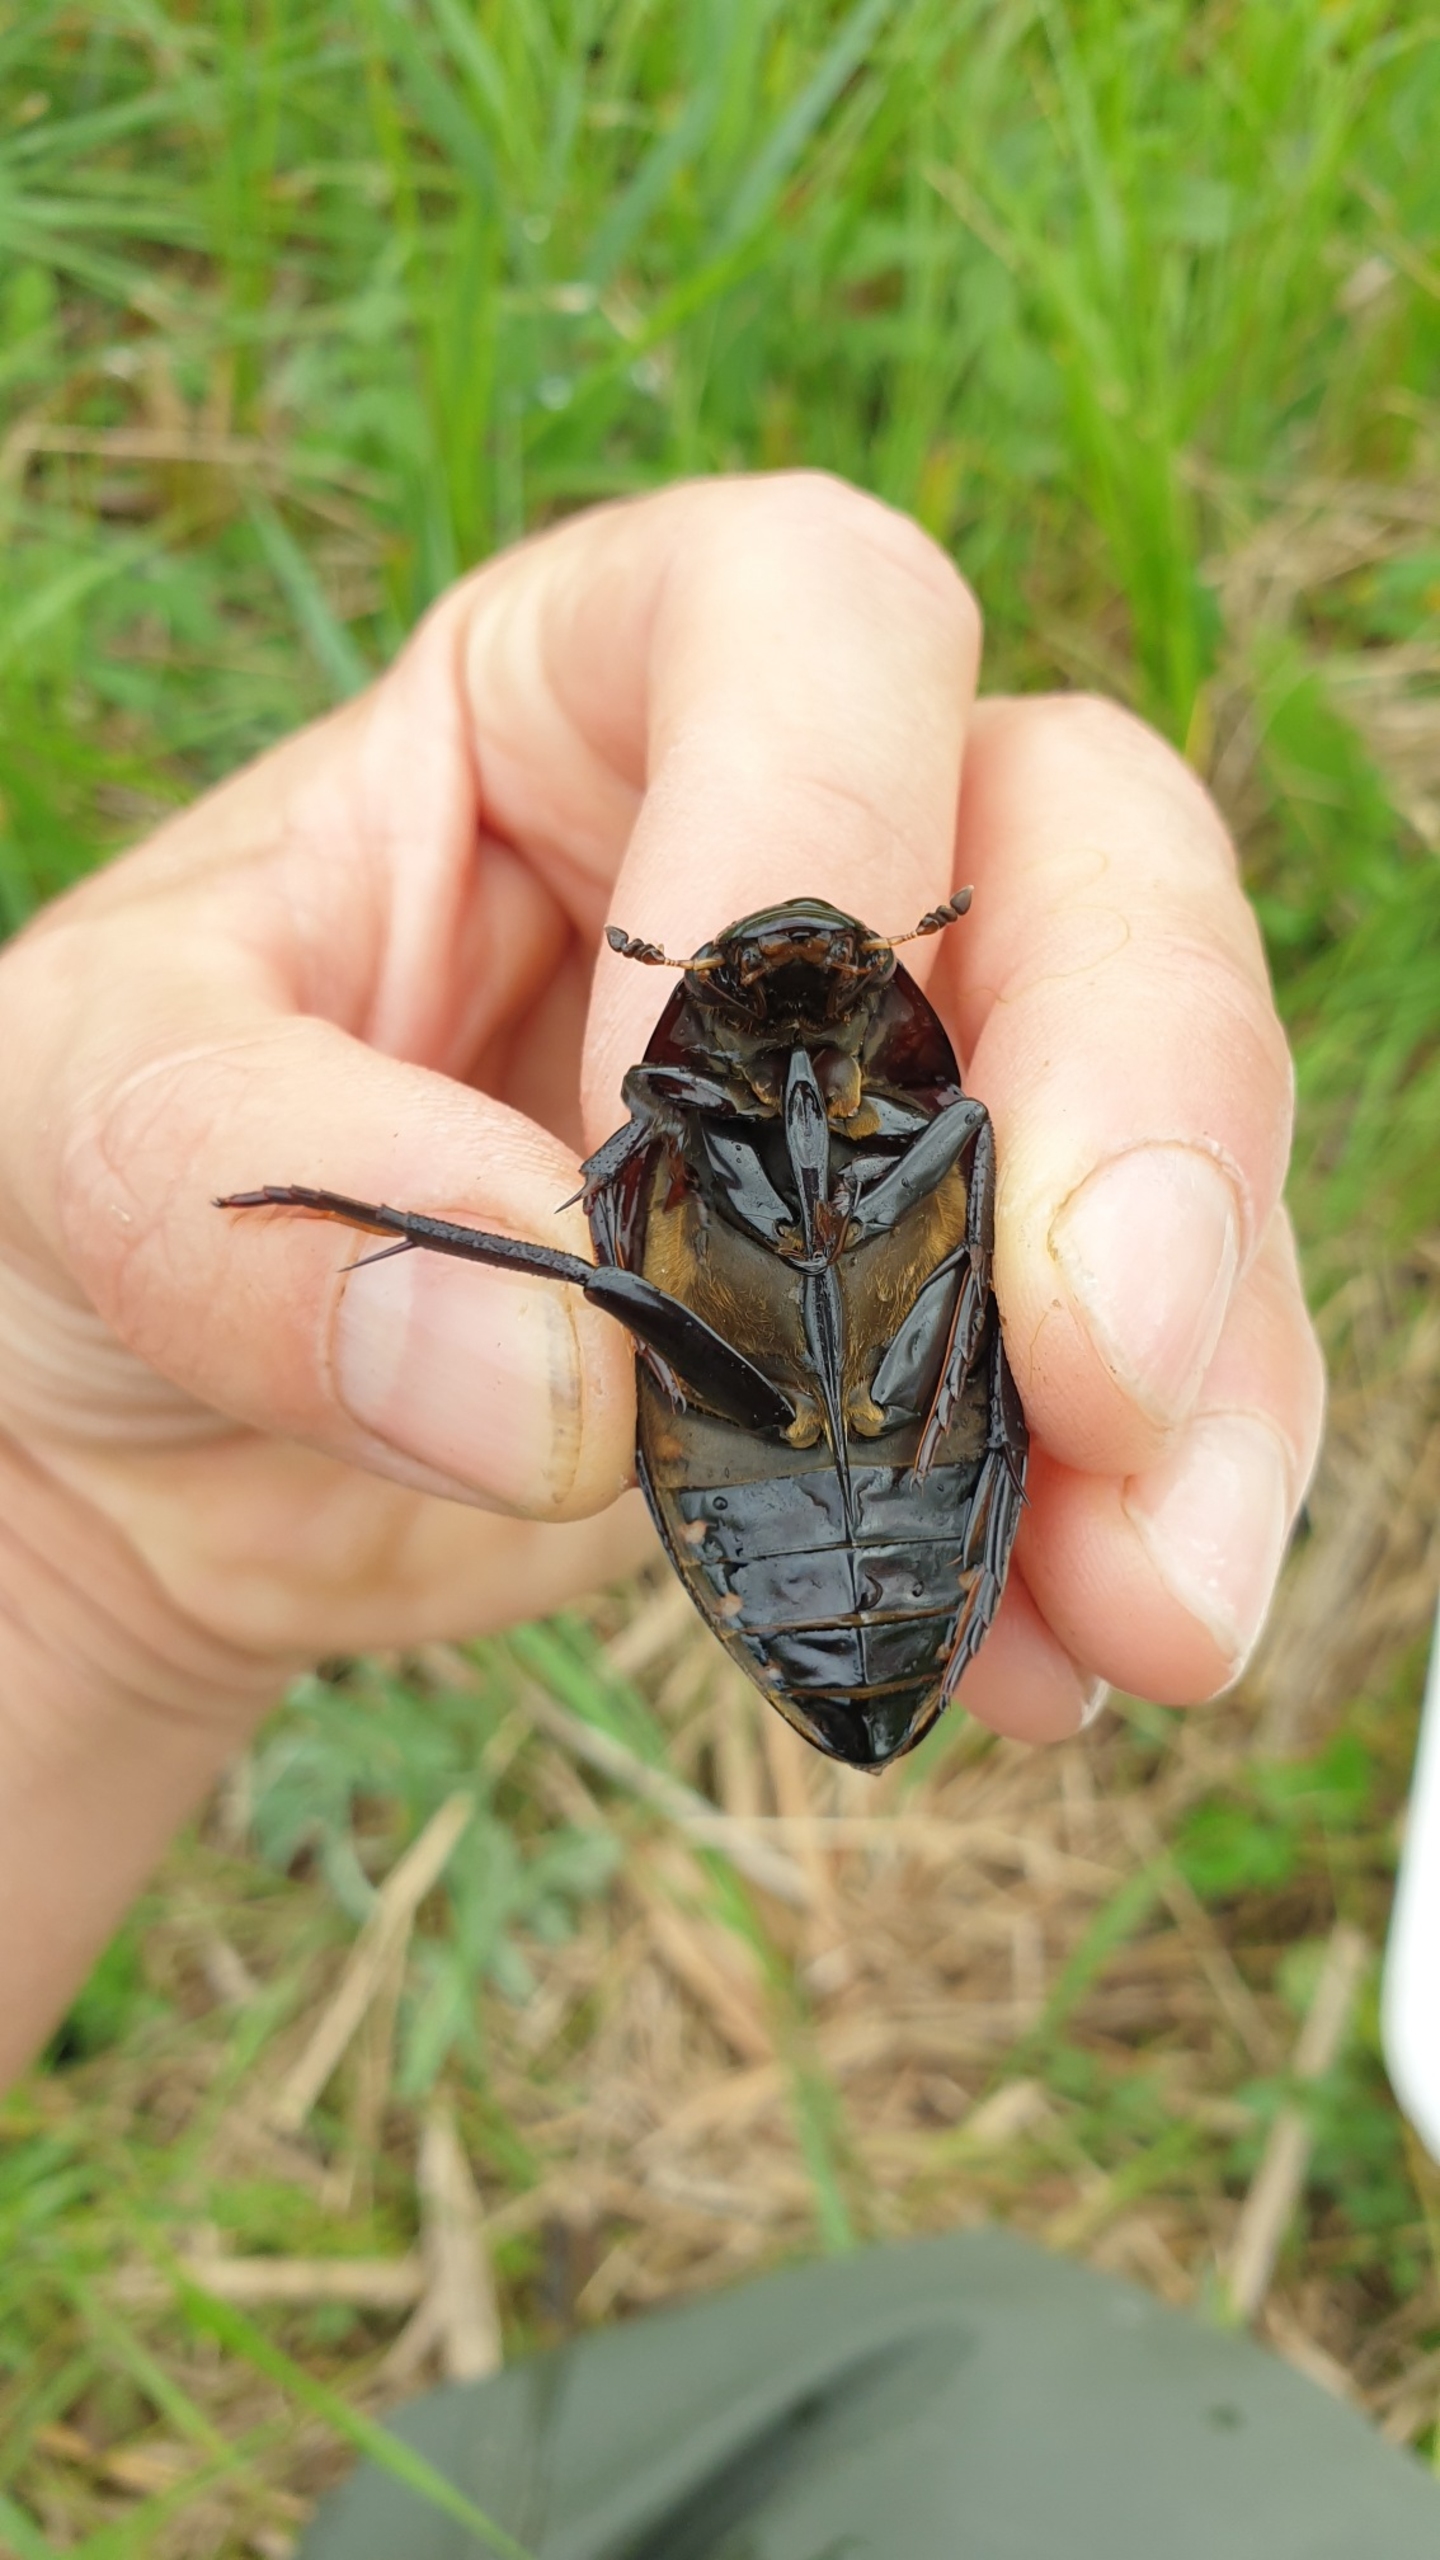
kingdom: Animalia
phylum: Arthropoda
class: Insecta
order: Coleoptera
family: Hydrophilidae
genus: Hydrophilus
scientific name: Hydrophilus piceus
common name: Stor vandkær
